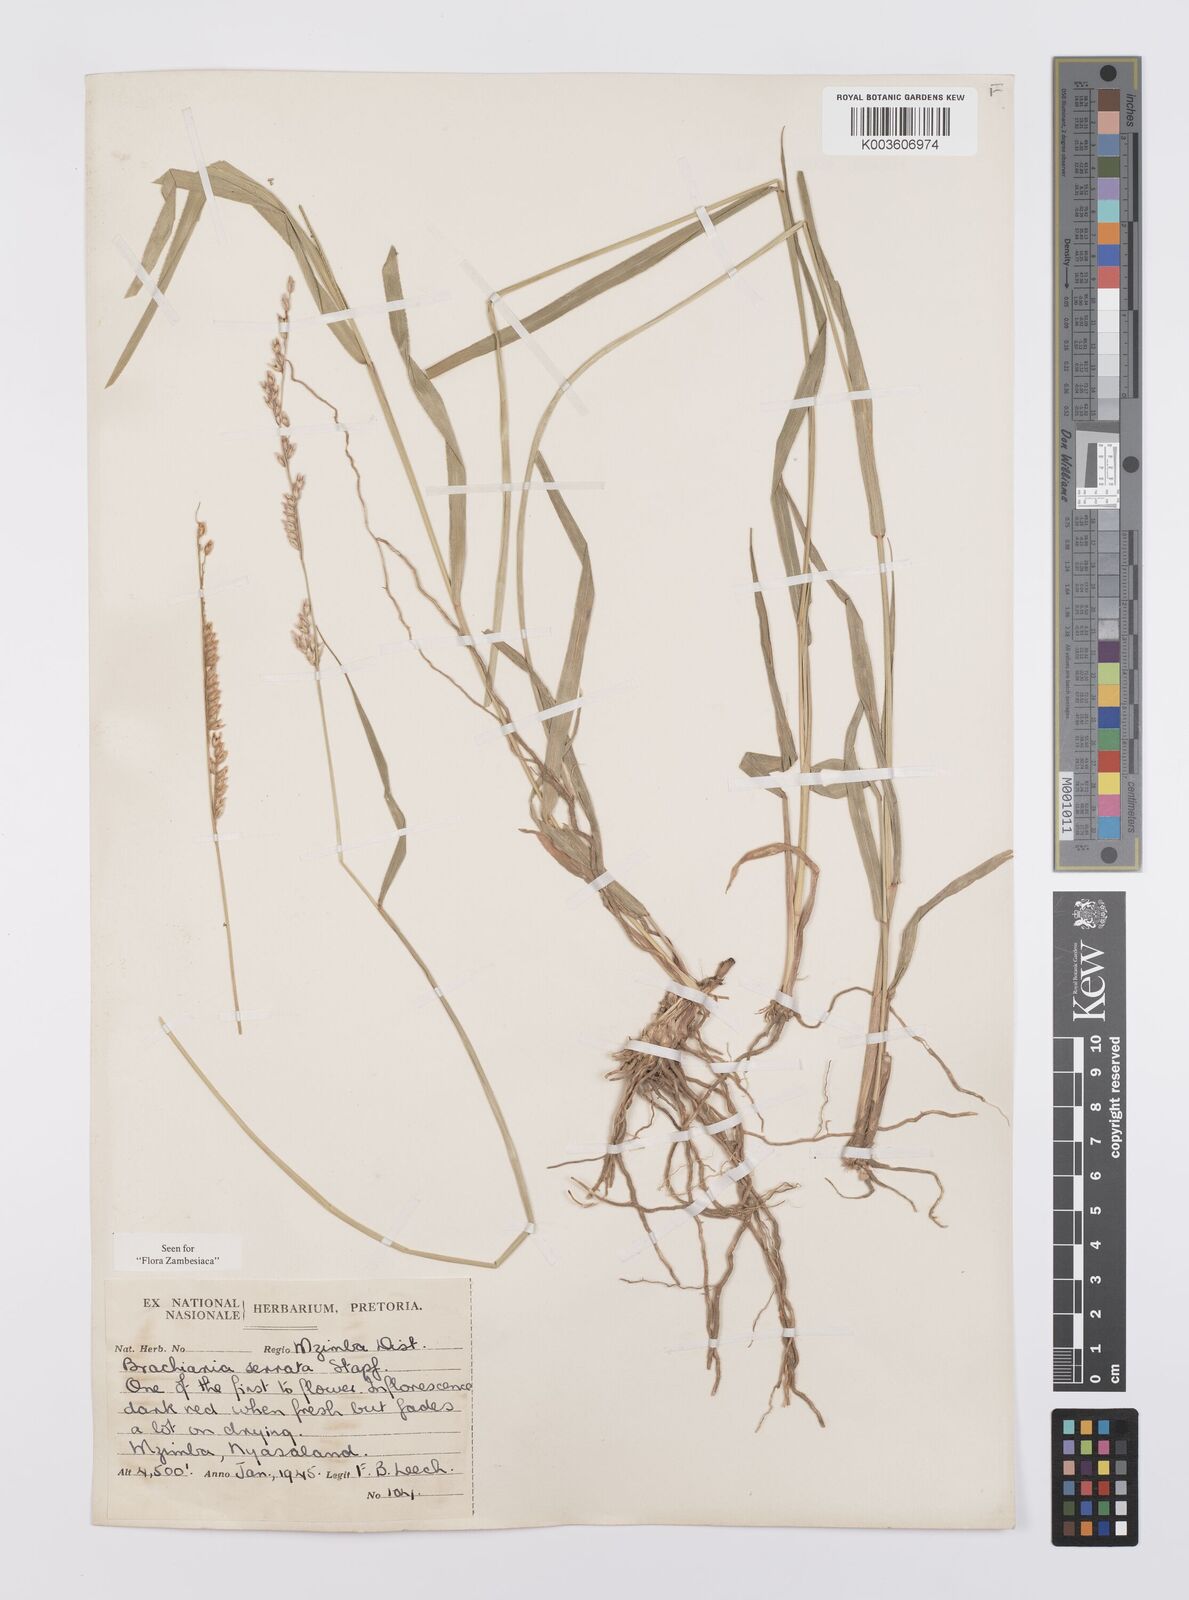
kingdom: Plantae
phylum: Tracheophyta
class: Liliopsida
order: Poales
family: Poaceae
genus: Urochloa
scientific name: Urochloa serrata
